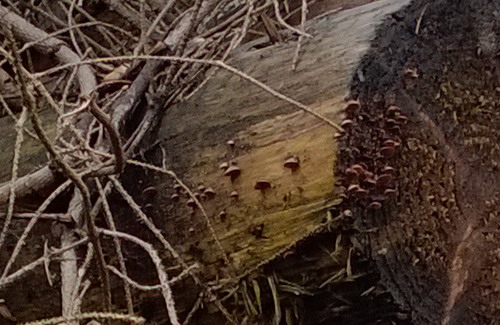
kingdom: Fungi
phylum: Basidiomycota
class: Agaricomycetes
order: Agaricales
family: Strophariaceae
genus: Deconica
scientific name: Deconica horizontalis
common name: ved-stråhat
